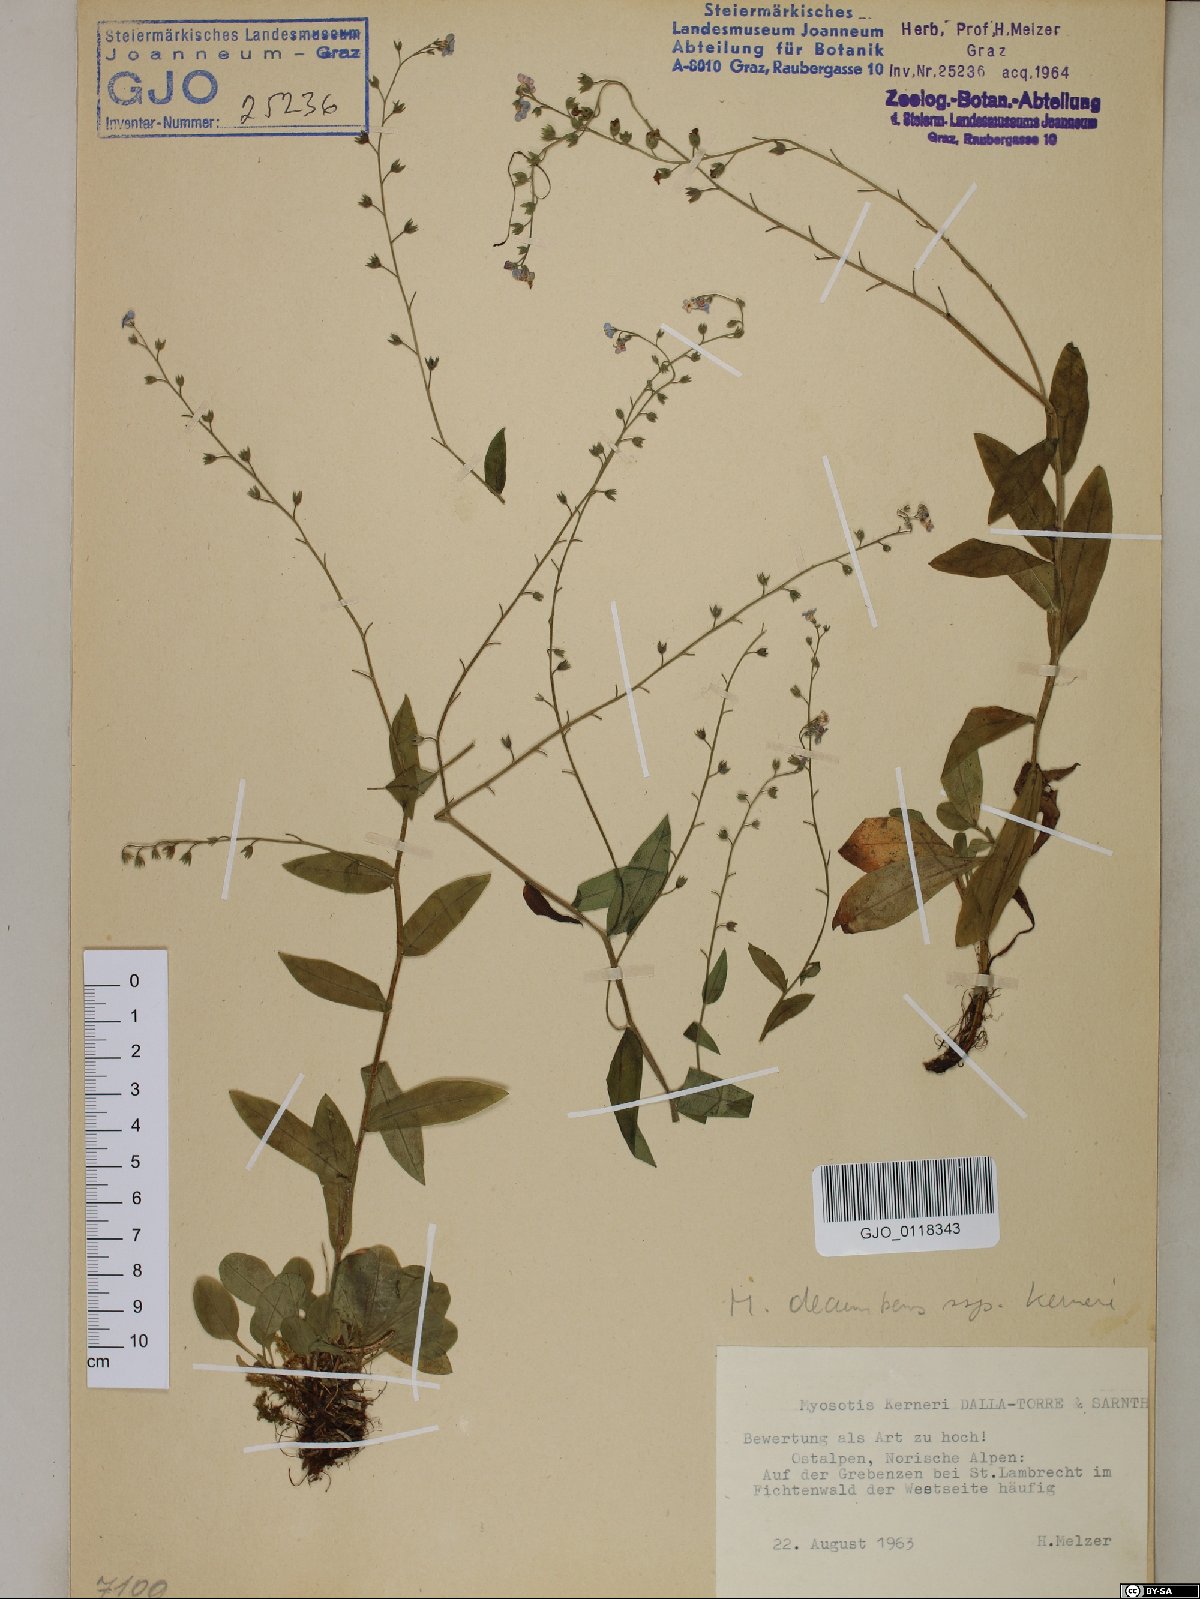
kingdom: Plantae
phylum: Tracheophyta
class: Magnoliopsida
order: Boraginales
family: Boraginaceae
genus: Myosotis
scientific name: Myosotis decumbens
